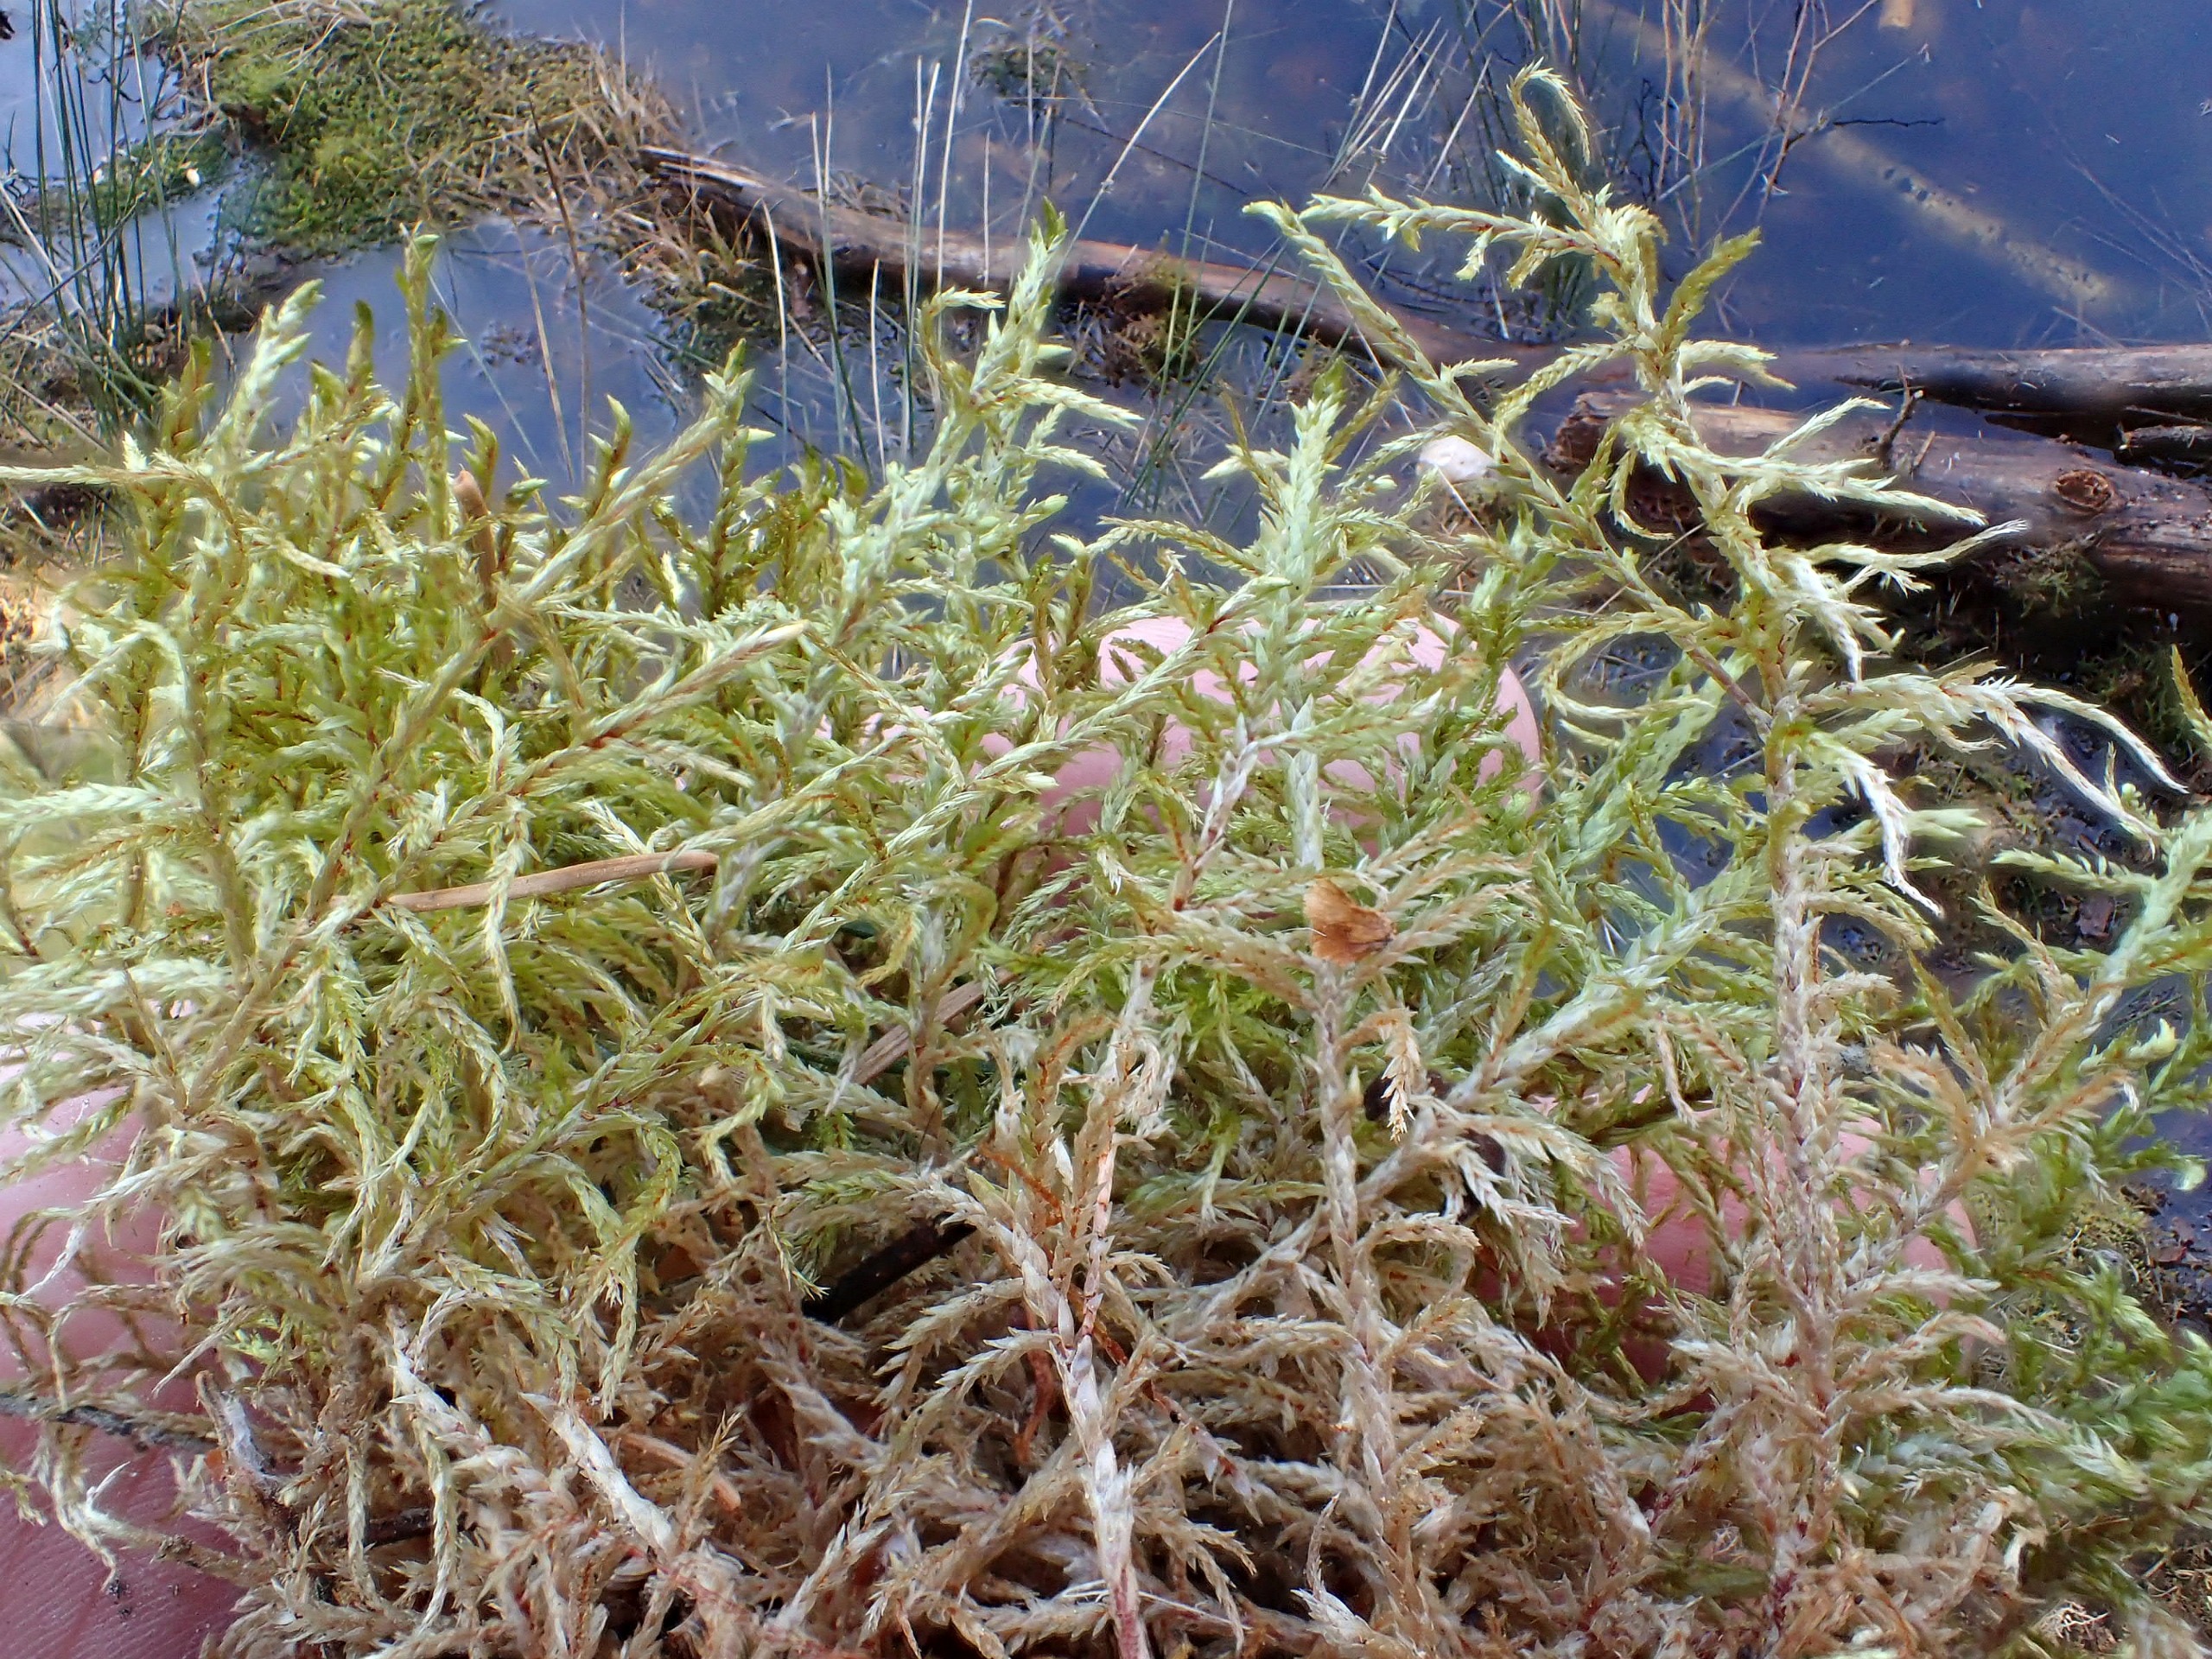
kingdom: Plantae
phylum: Bryophyta
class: Bryopsida
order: Hypnales
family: Hylocomiaceae
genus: Pleurozium
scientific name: Pleurozium schreberi
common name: Trind fyrremos
